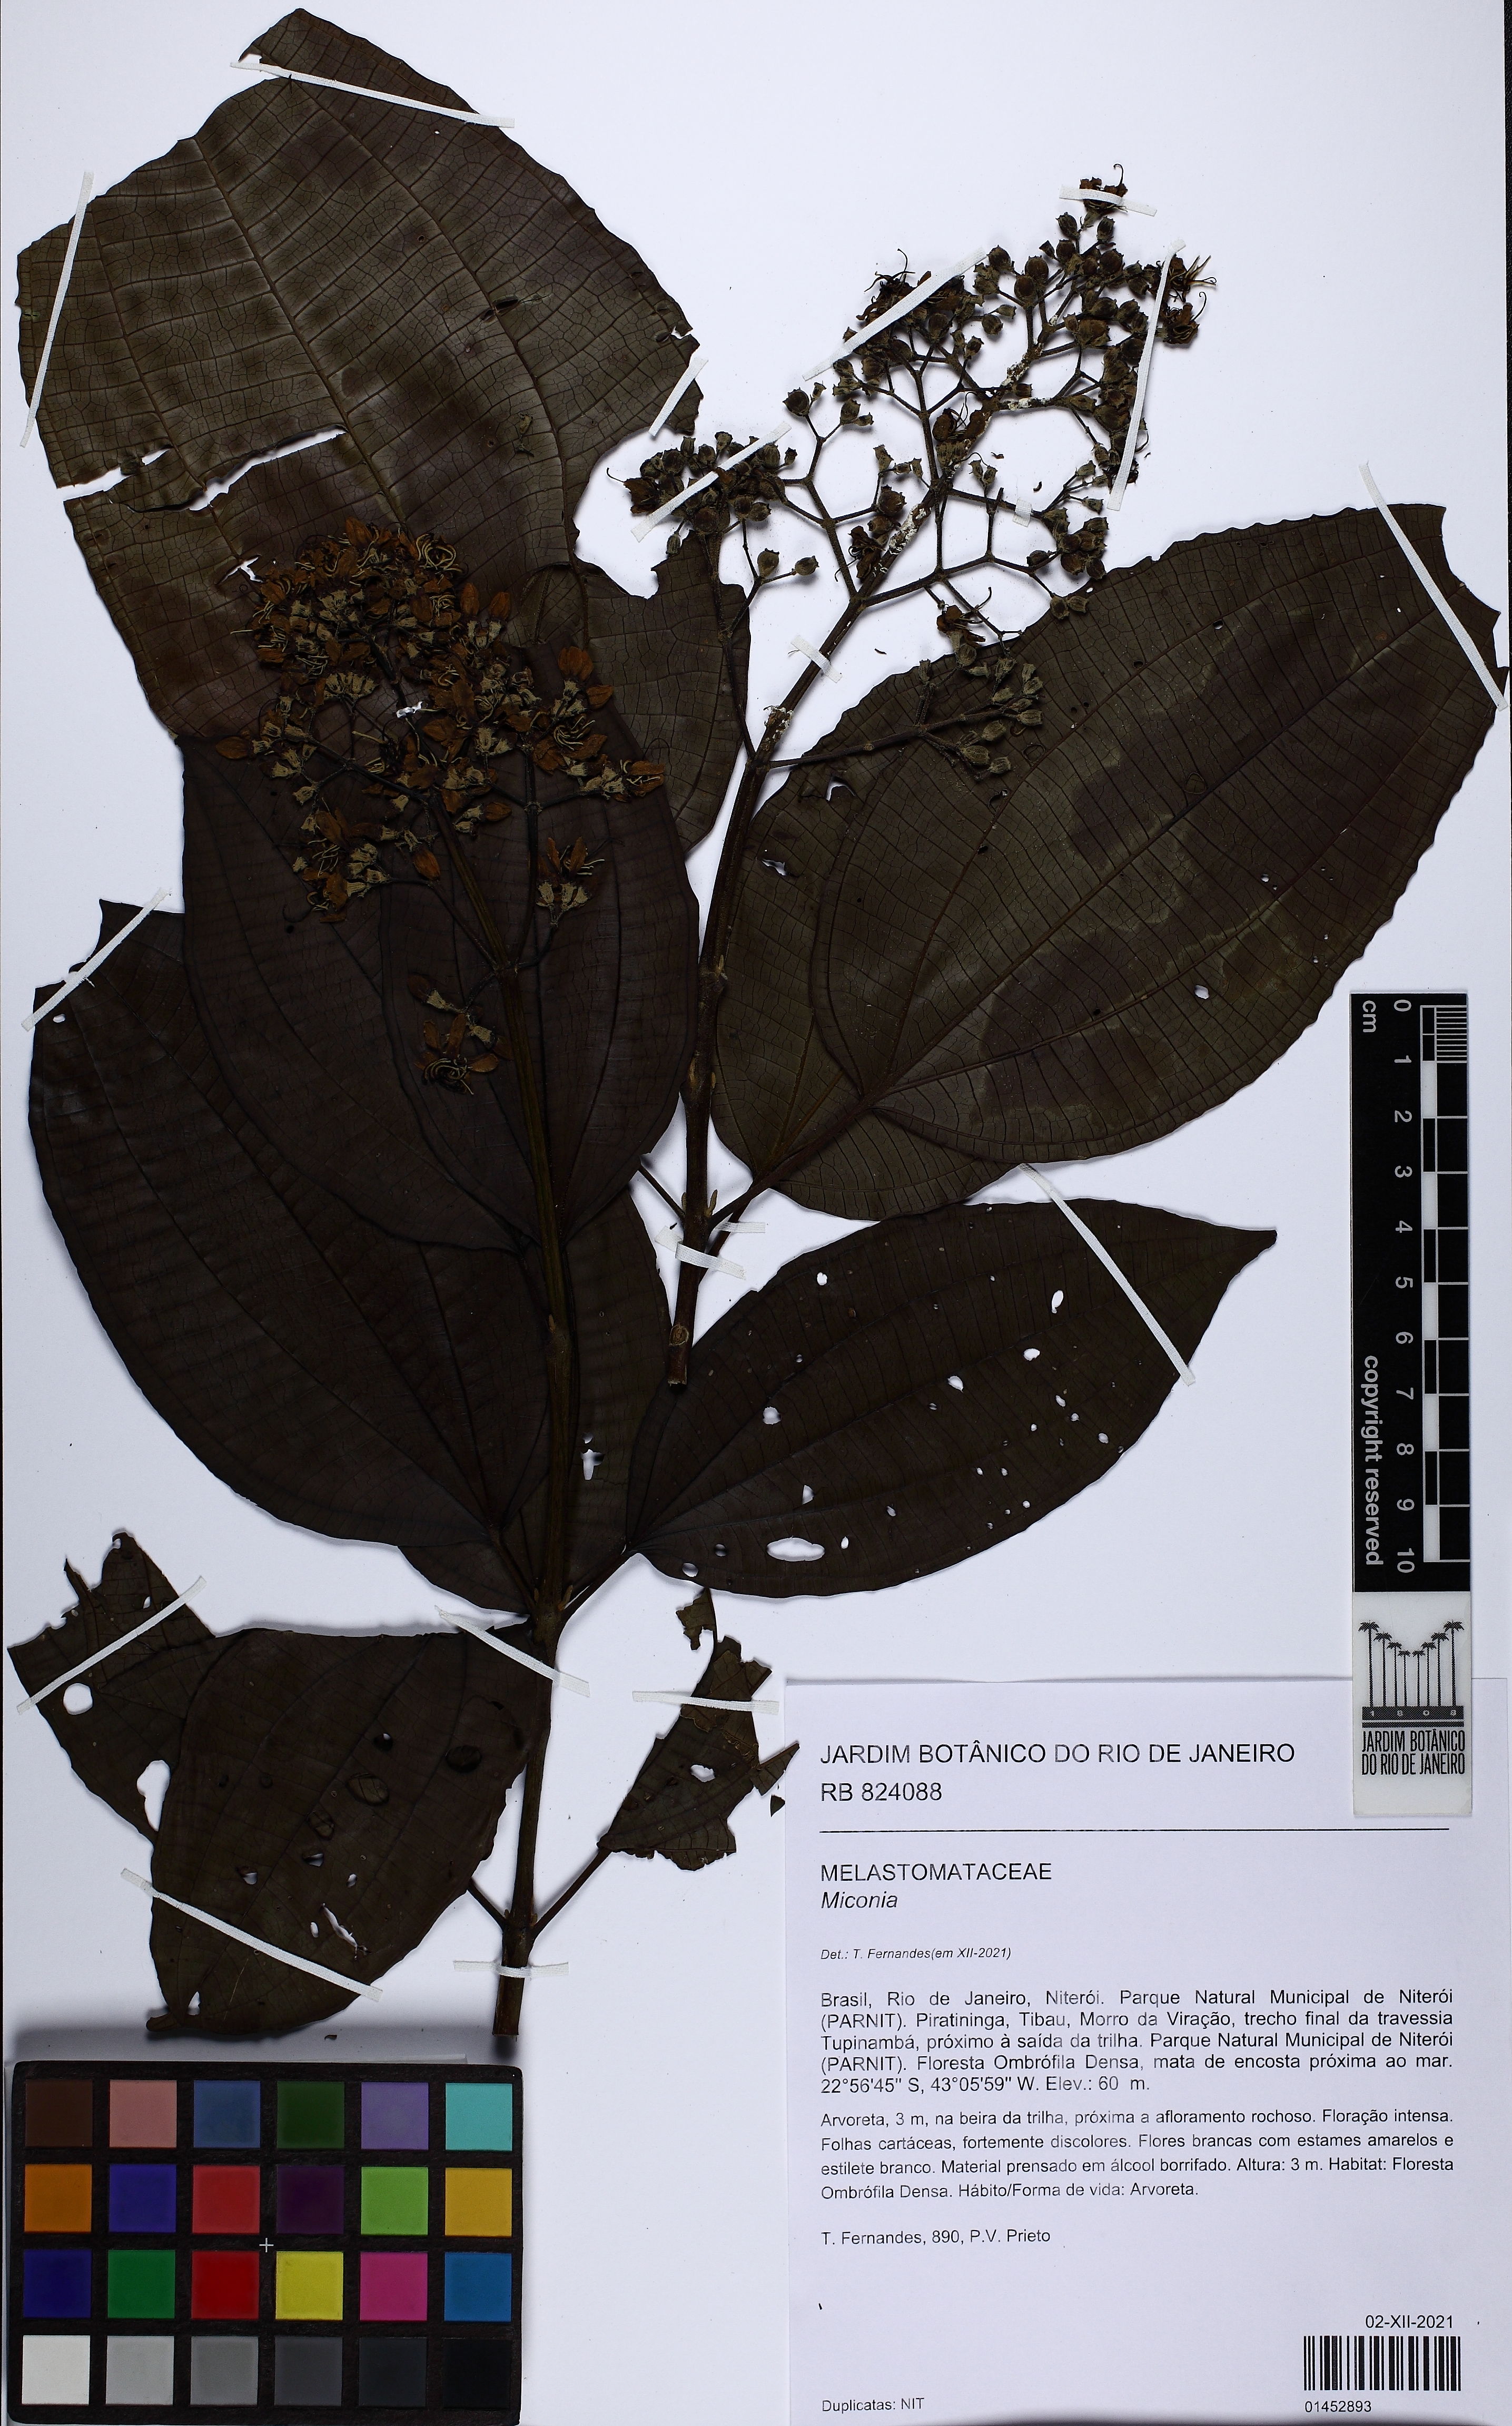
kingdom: Plantae
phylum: Tracheophyta
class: Magnoliopsida
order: Myrtales
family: Melastomataceae
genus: Miconia
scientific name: Miconia
